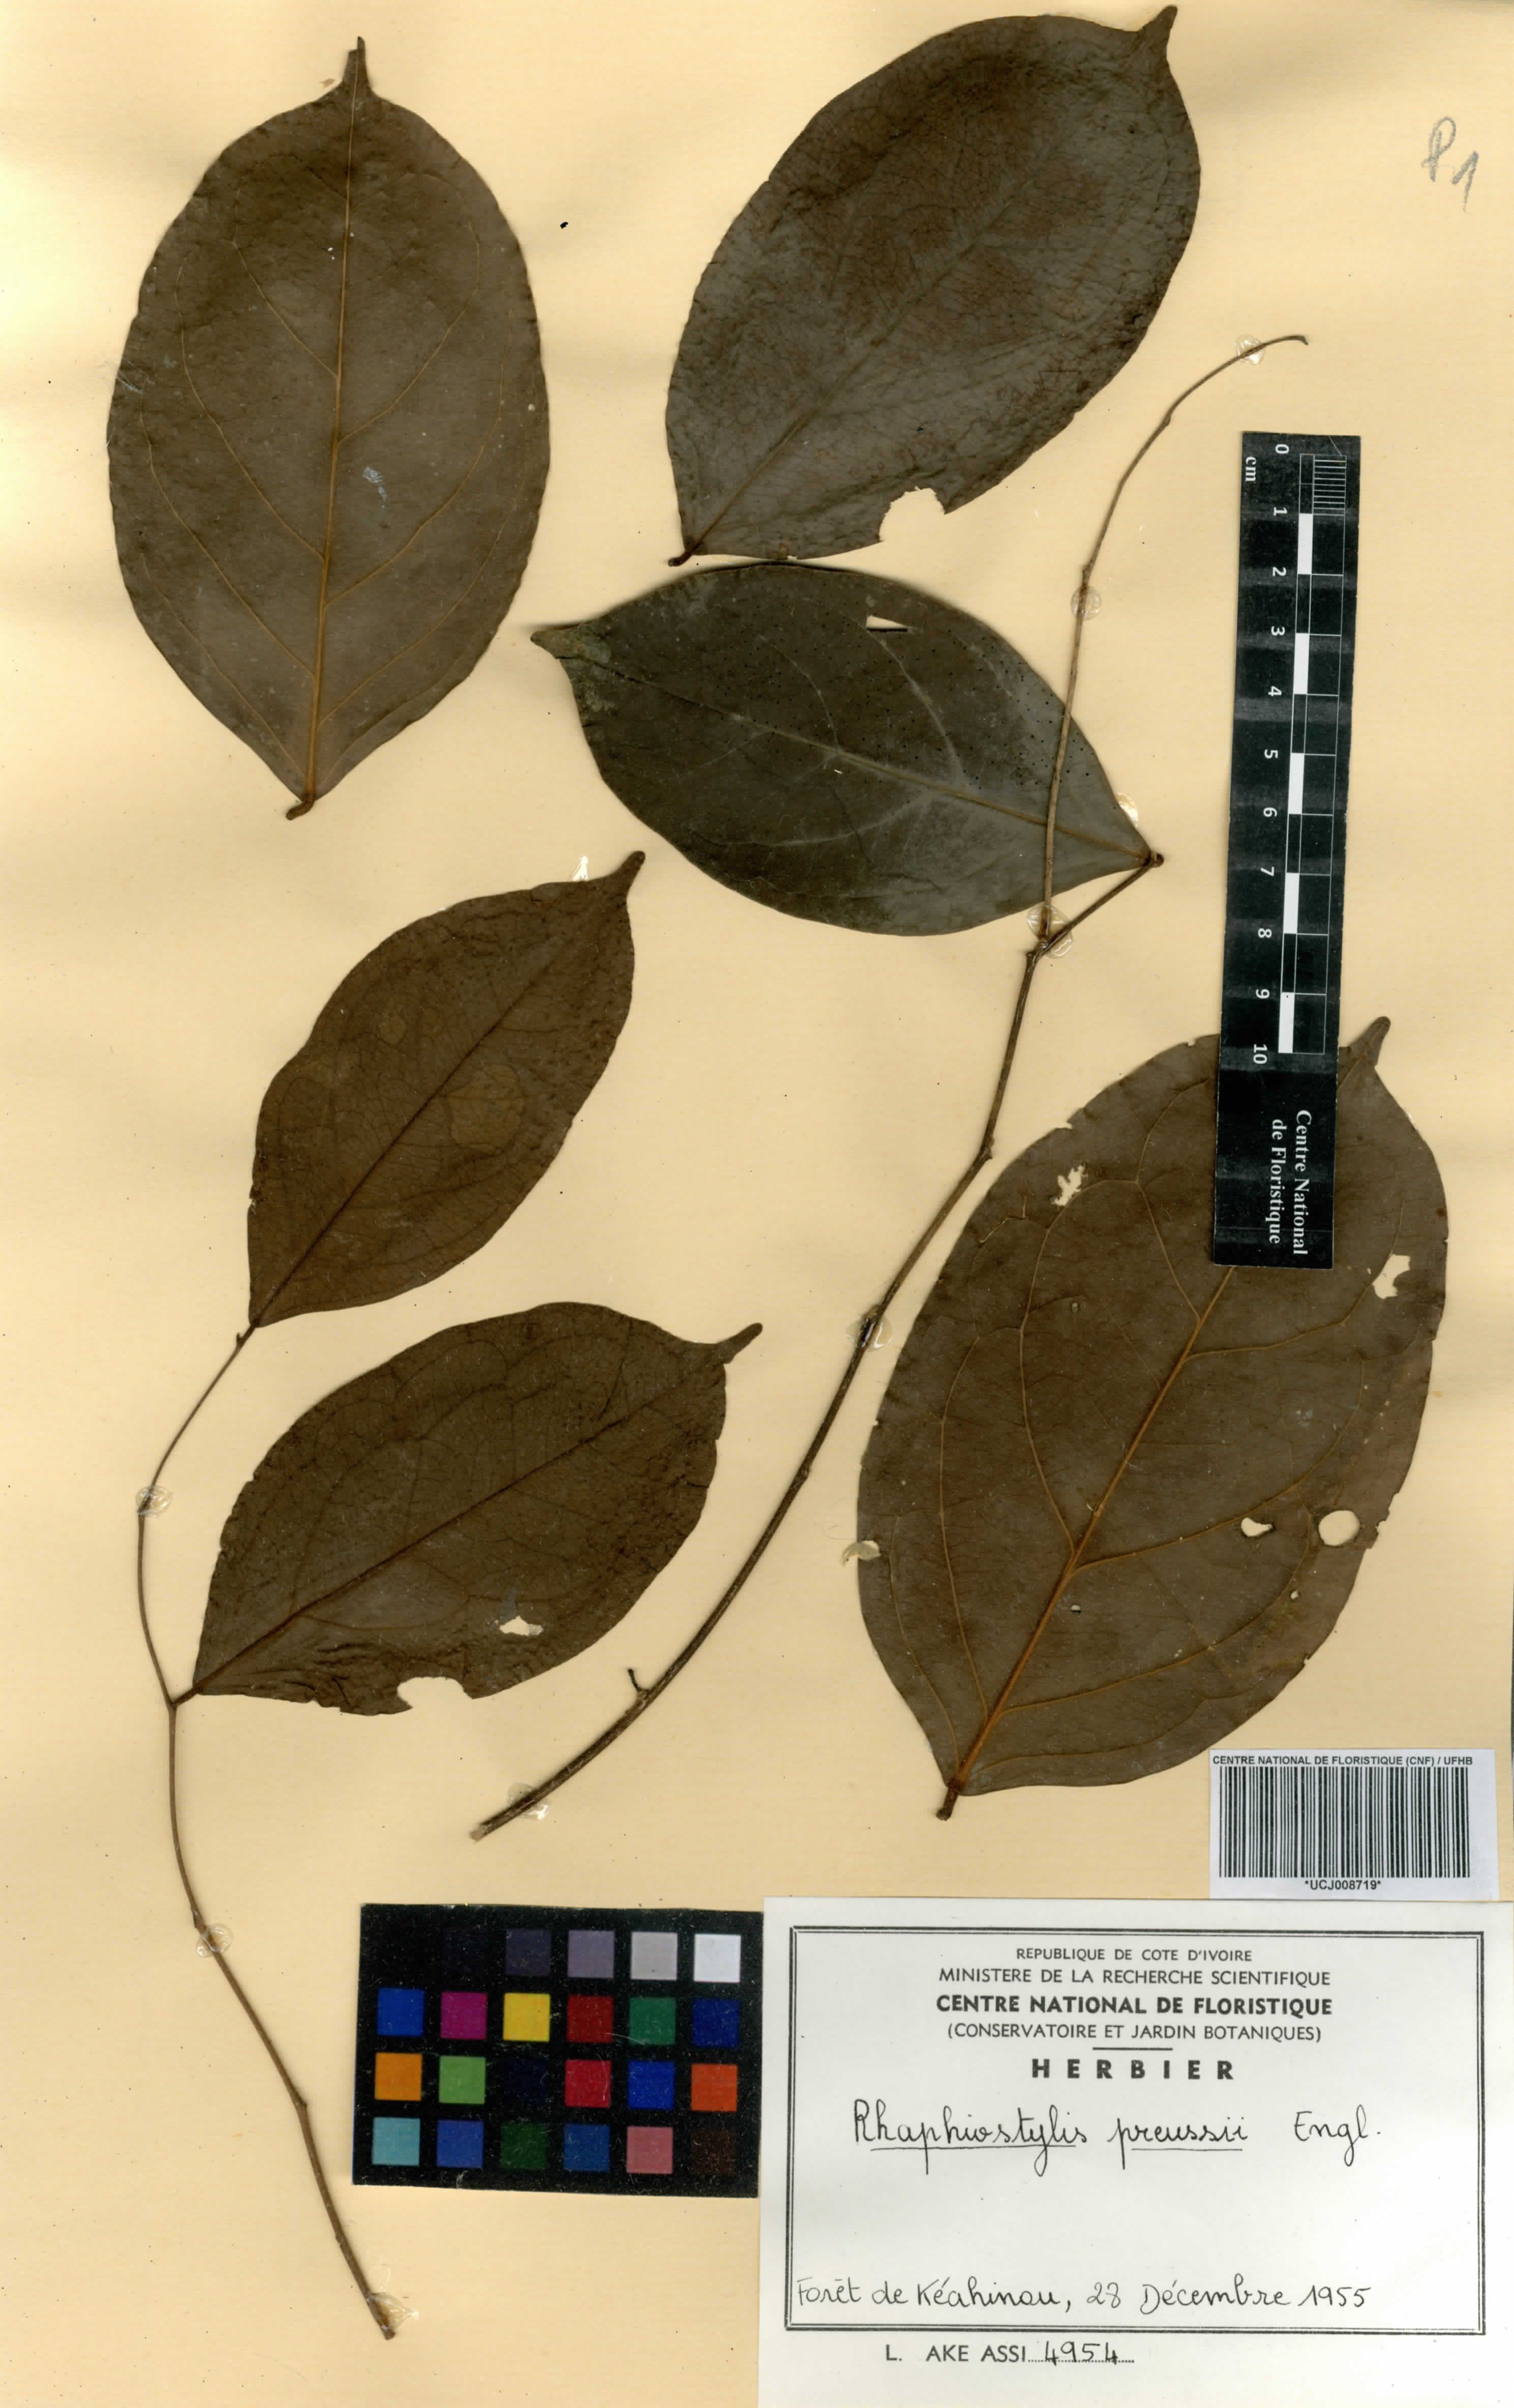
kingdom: Plantae
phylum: Tracheophyta
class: Magnoliopsida
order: Metteniusales
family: Metteniusaceae
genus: Rhaphiostylis
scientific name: Rhaphiostylis preussii
